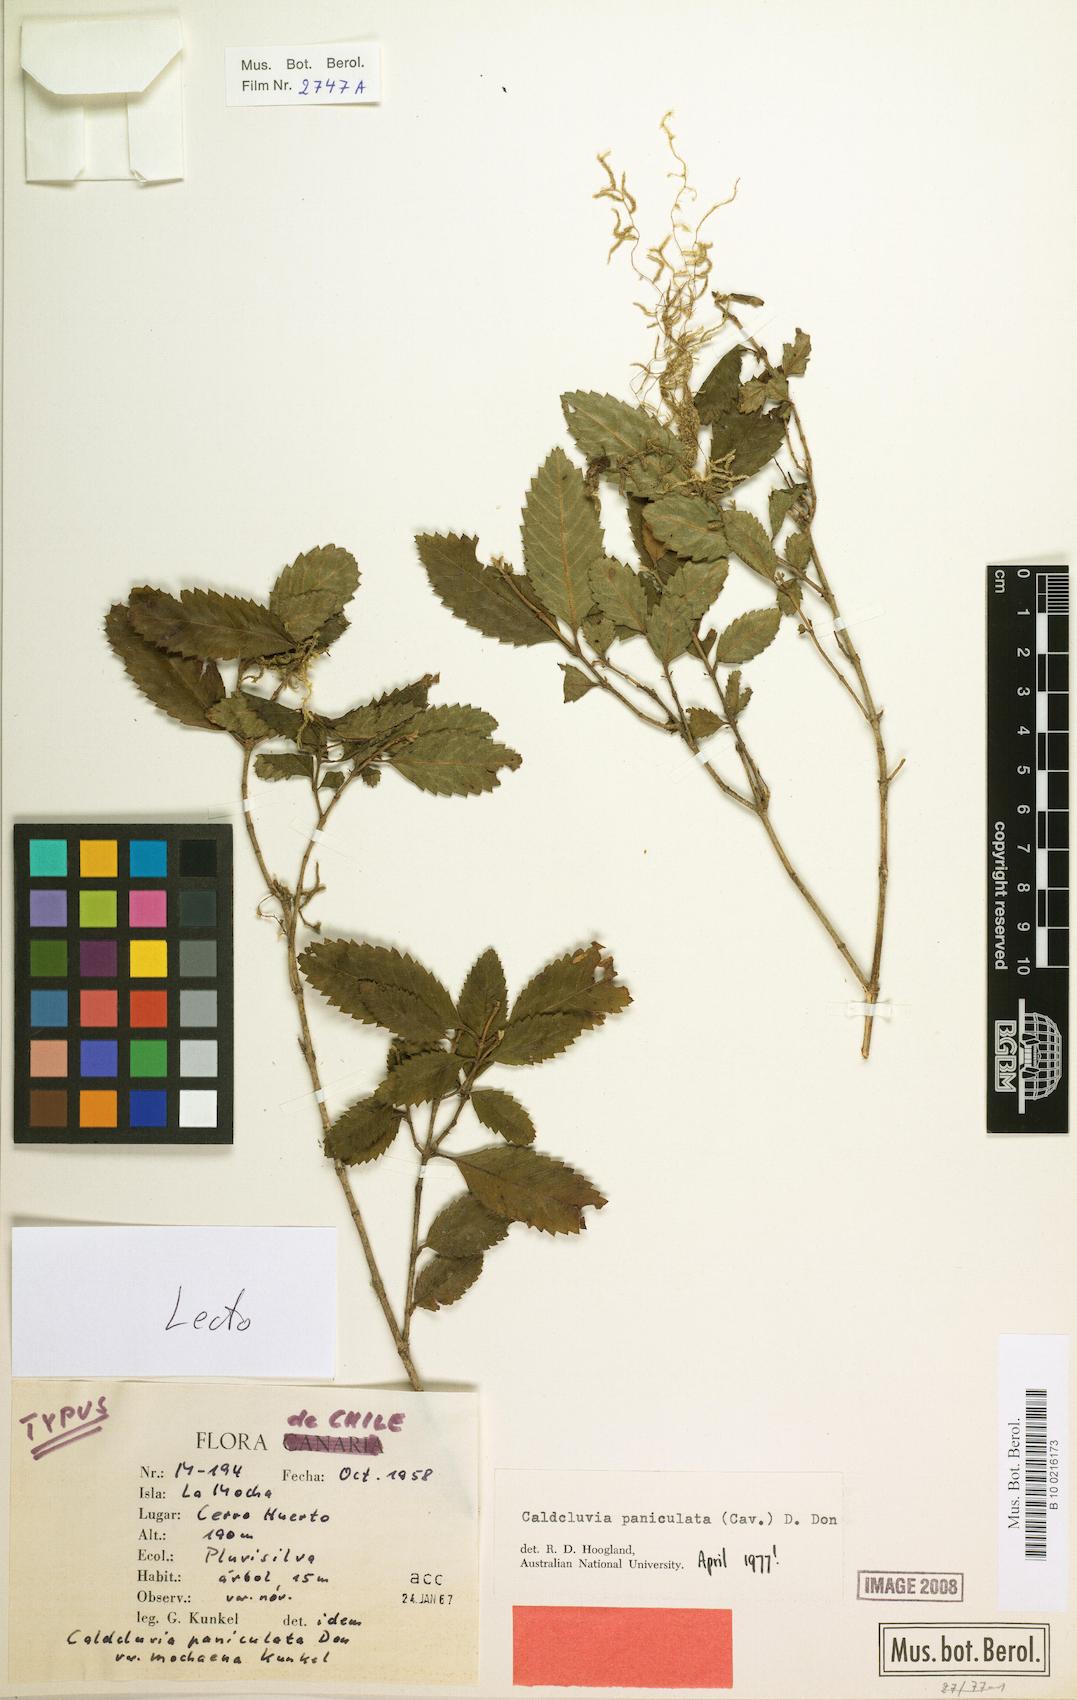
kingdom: Plantae
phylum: Tracheophyta
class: Magnoliopsida
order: Oxalidales
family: Cunoniaceae
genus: Caldcluvia
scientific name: Caldcluvia paniculata
